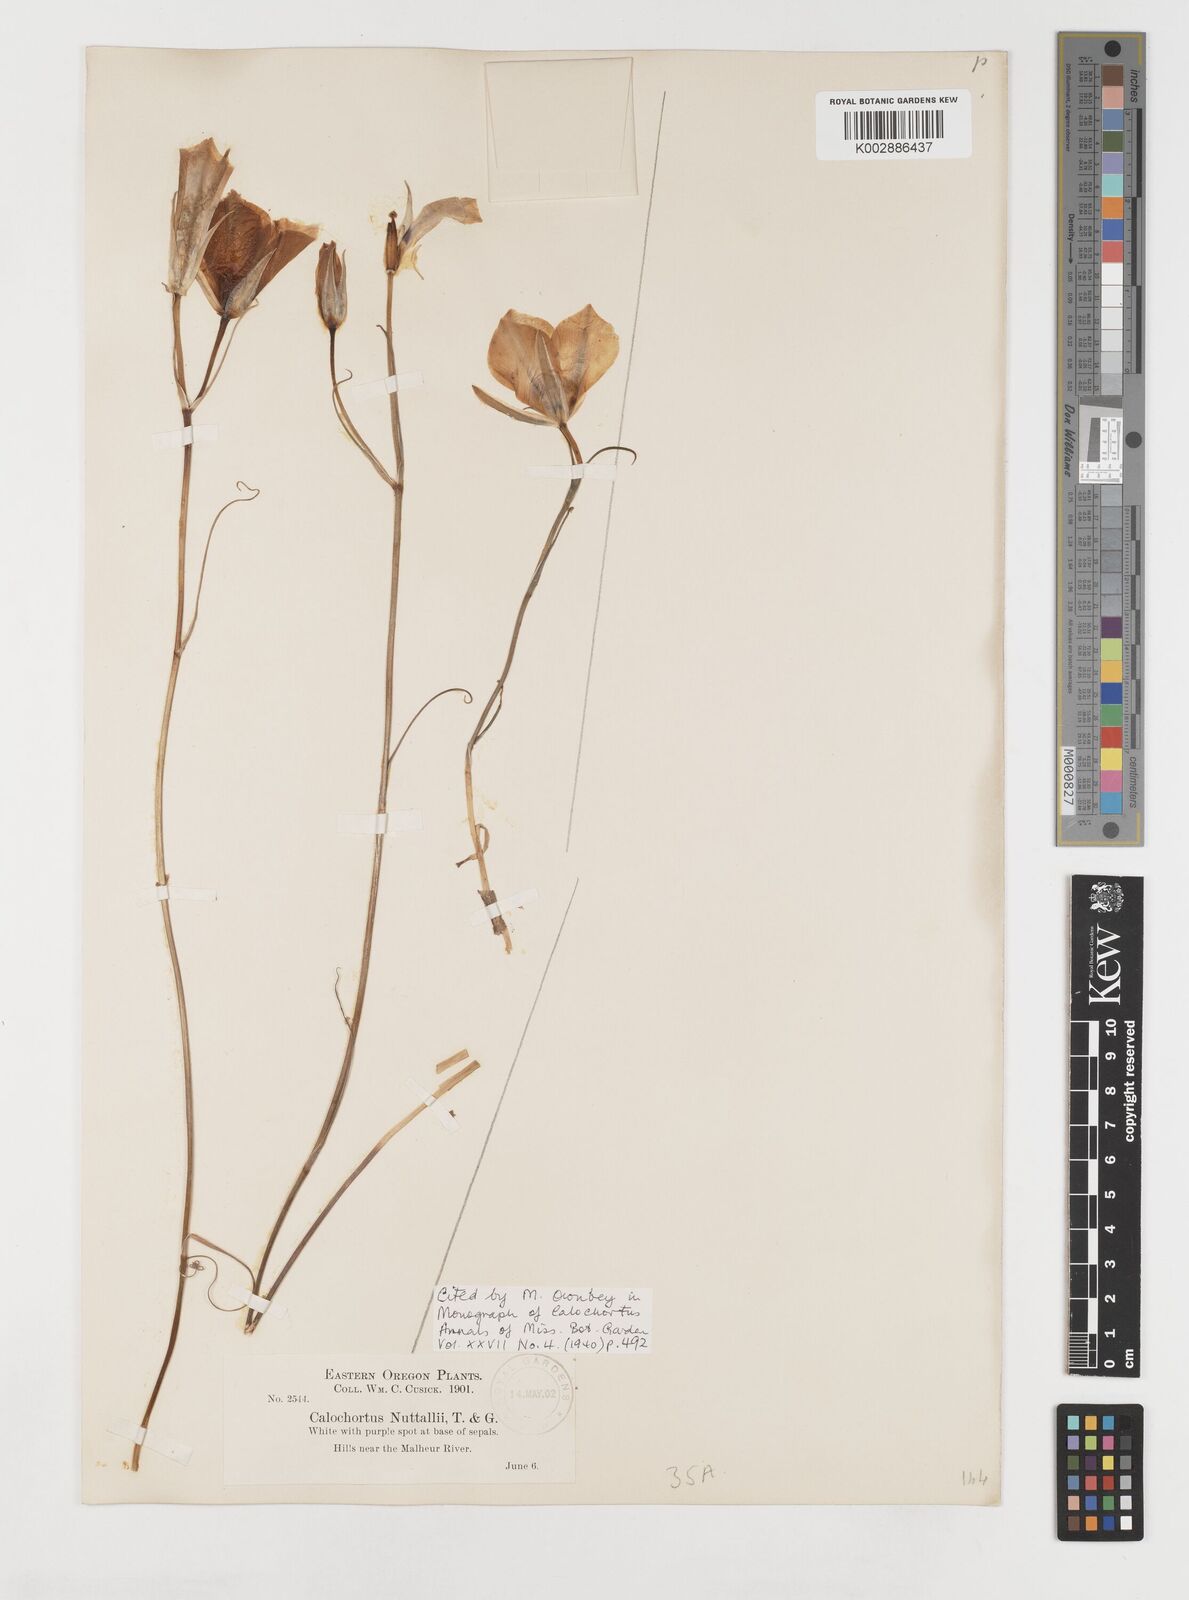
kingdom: Plantae
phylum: Tracheophyta
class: Liliopsida
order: Liliales
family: Liliaceae
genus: Calochortus
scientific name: Calochortus bruneaunis
